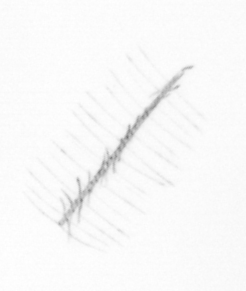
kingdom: Chromista
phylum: Ochrophyta
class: Bacillariophyceae
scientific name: Bacillariophyceae
